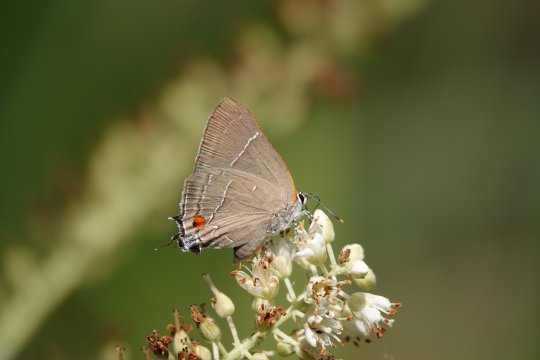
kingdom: Animalia
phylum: Arthropoda
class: Insecta
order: Lepidoptera
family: Lycaenidae
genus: Parrhasius
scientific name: Parrhasius m-album
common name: White-m Hairstreak
